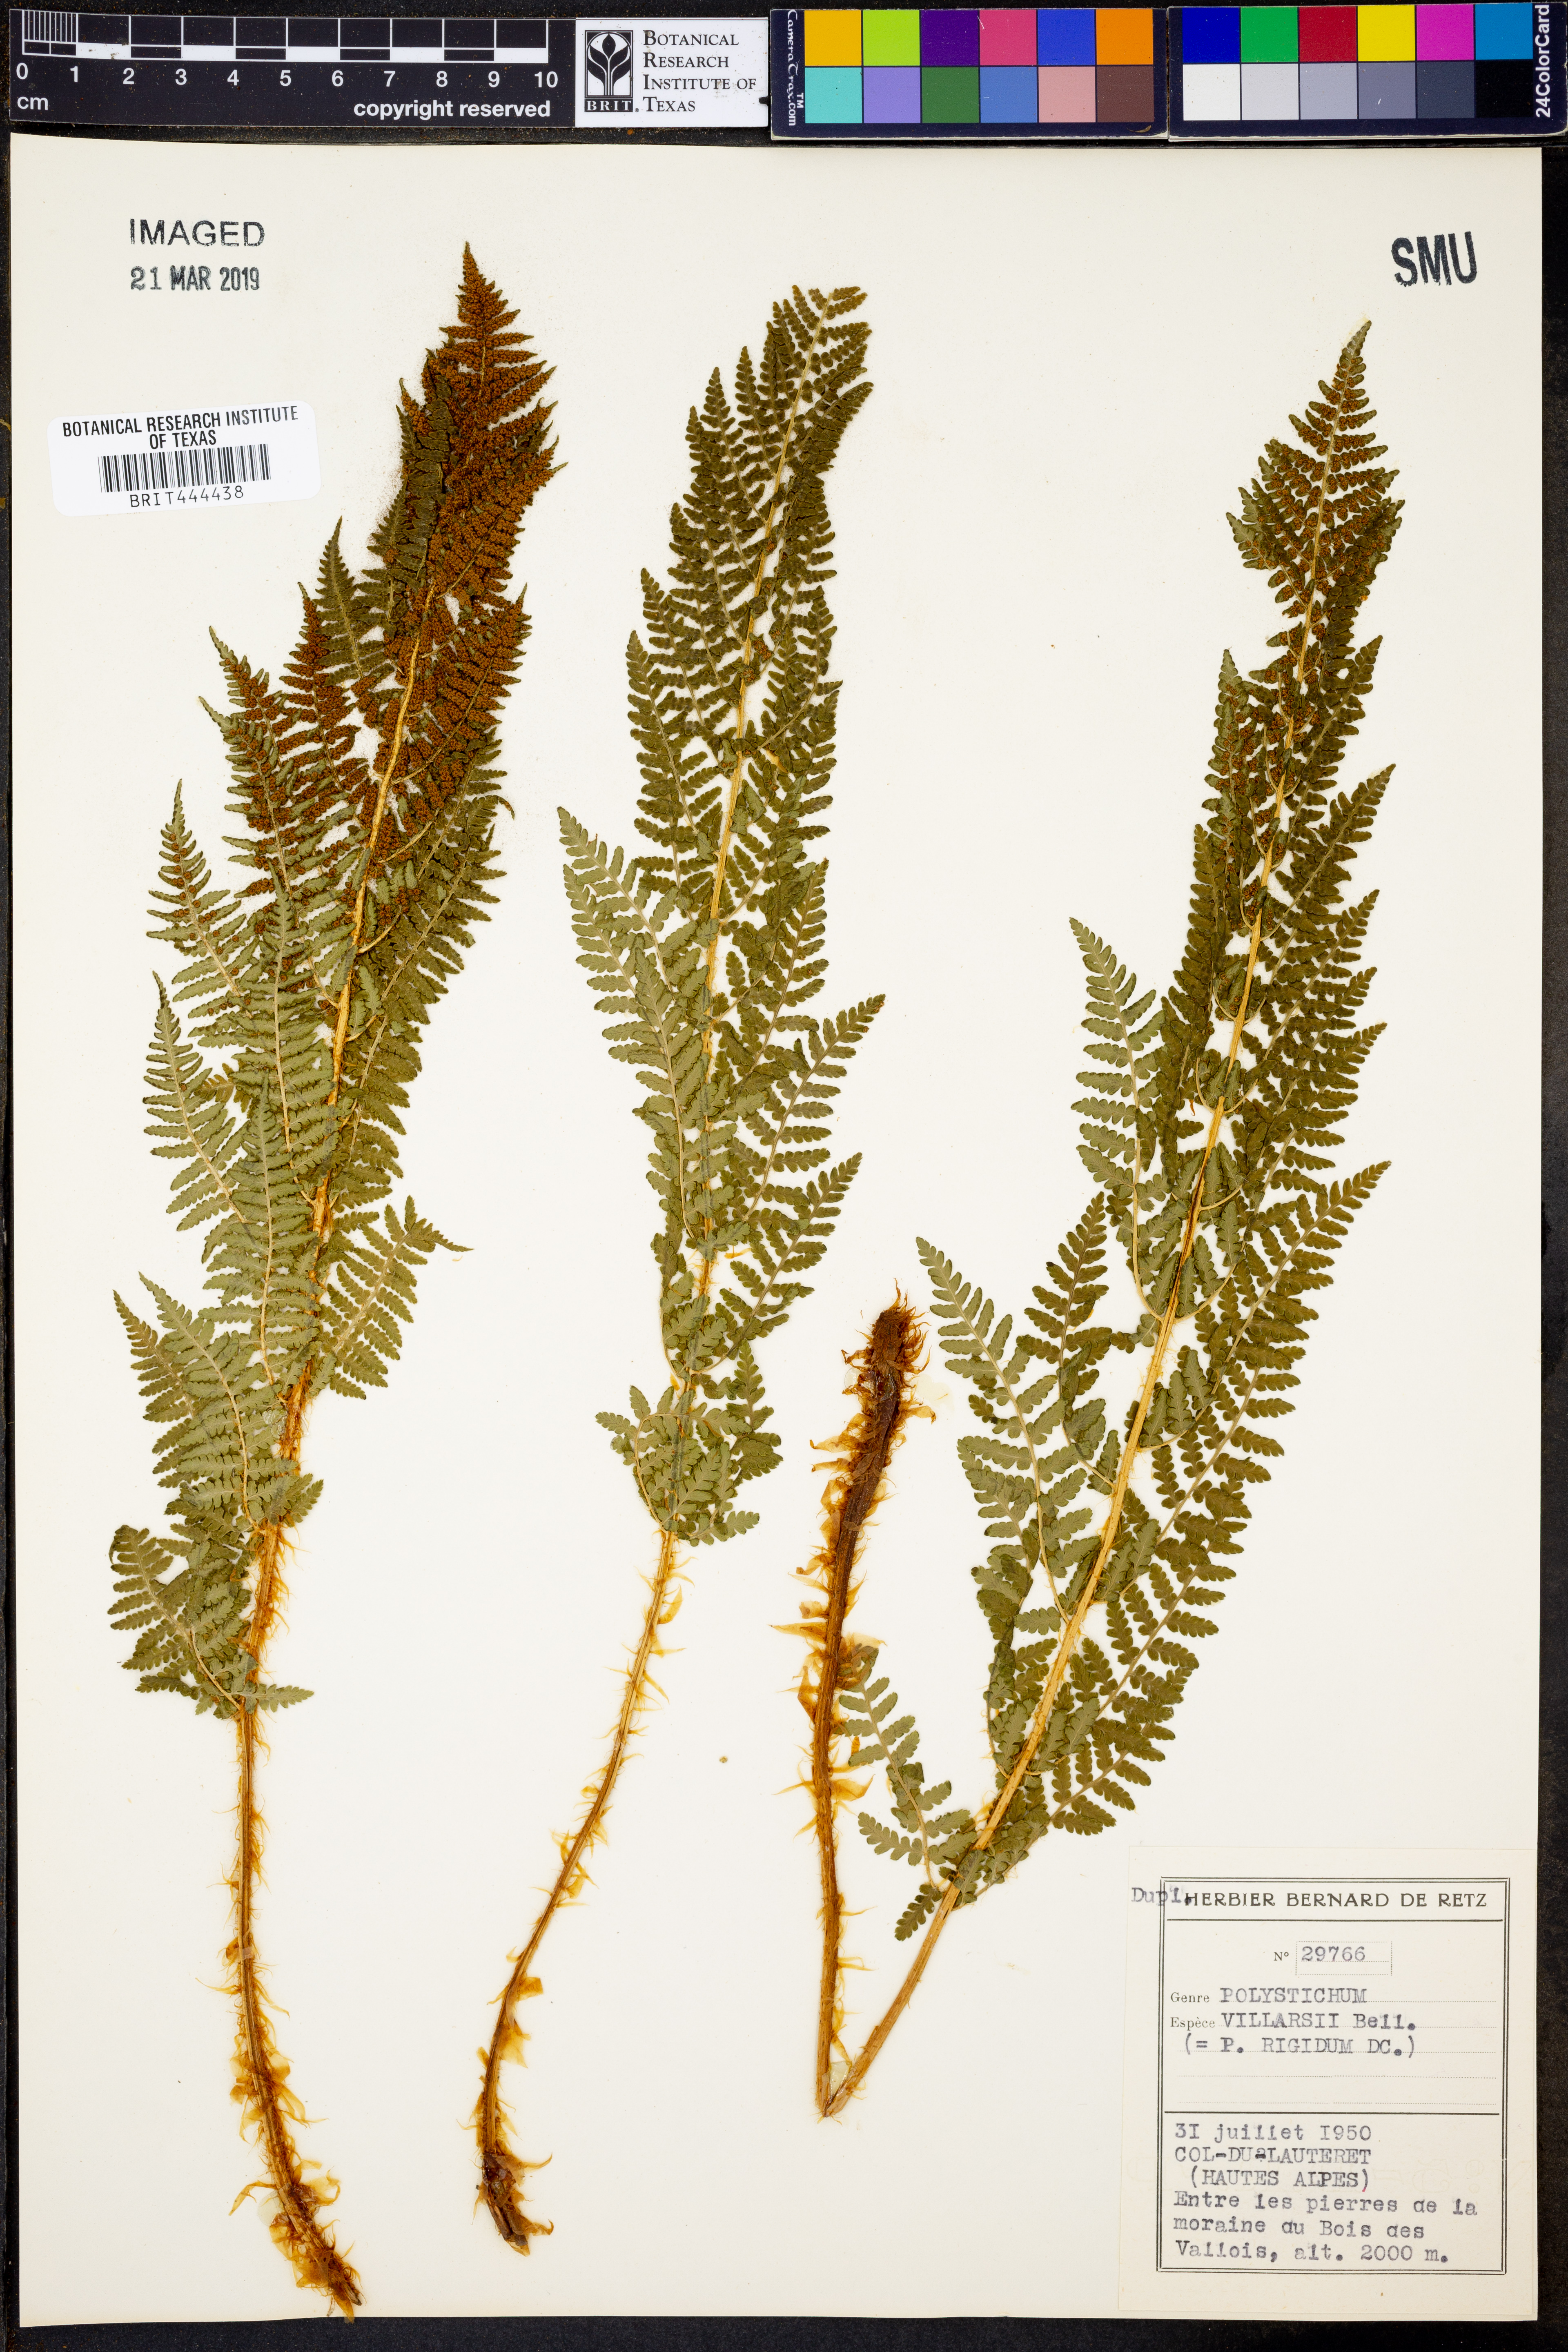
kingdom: Plantae
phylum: Tracheophyta
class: Polypodiopsida
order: Polypodiales
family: Dryopteridaceae
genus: Polystichum
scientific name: Polystichum
